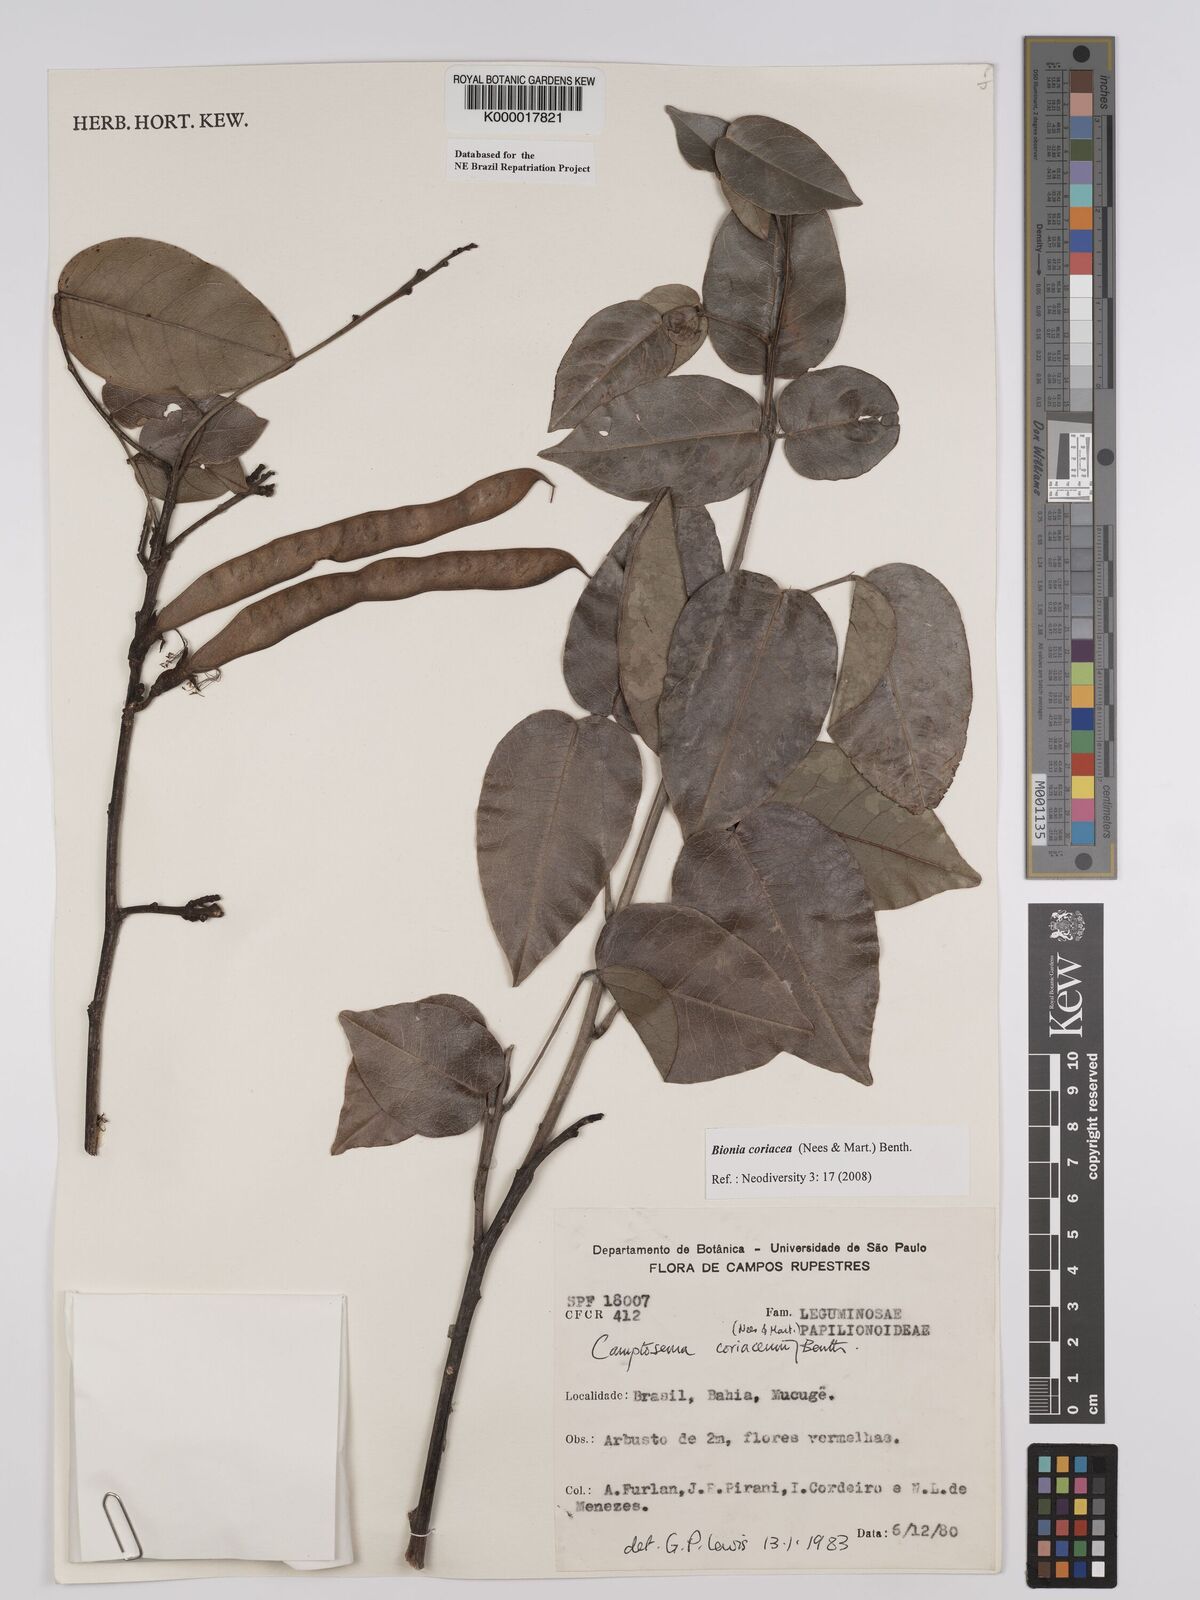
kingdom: Plantae
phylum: Tracheophyta
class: Magnoliopsida
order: Fabales
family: Fabaceae
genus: Camptosema
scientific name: Camptosema coriaceum
